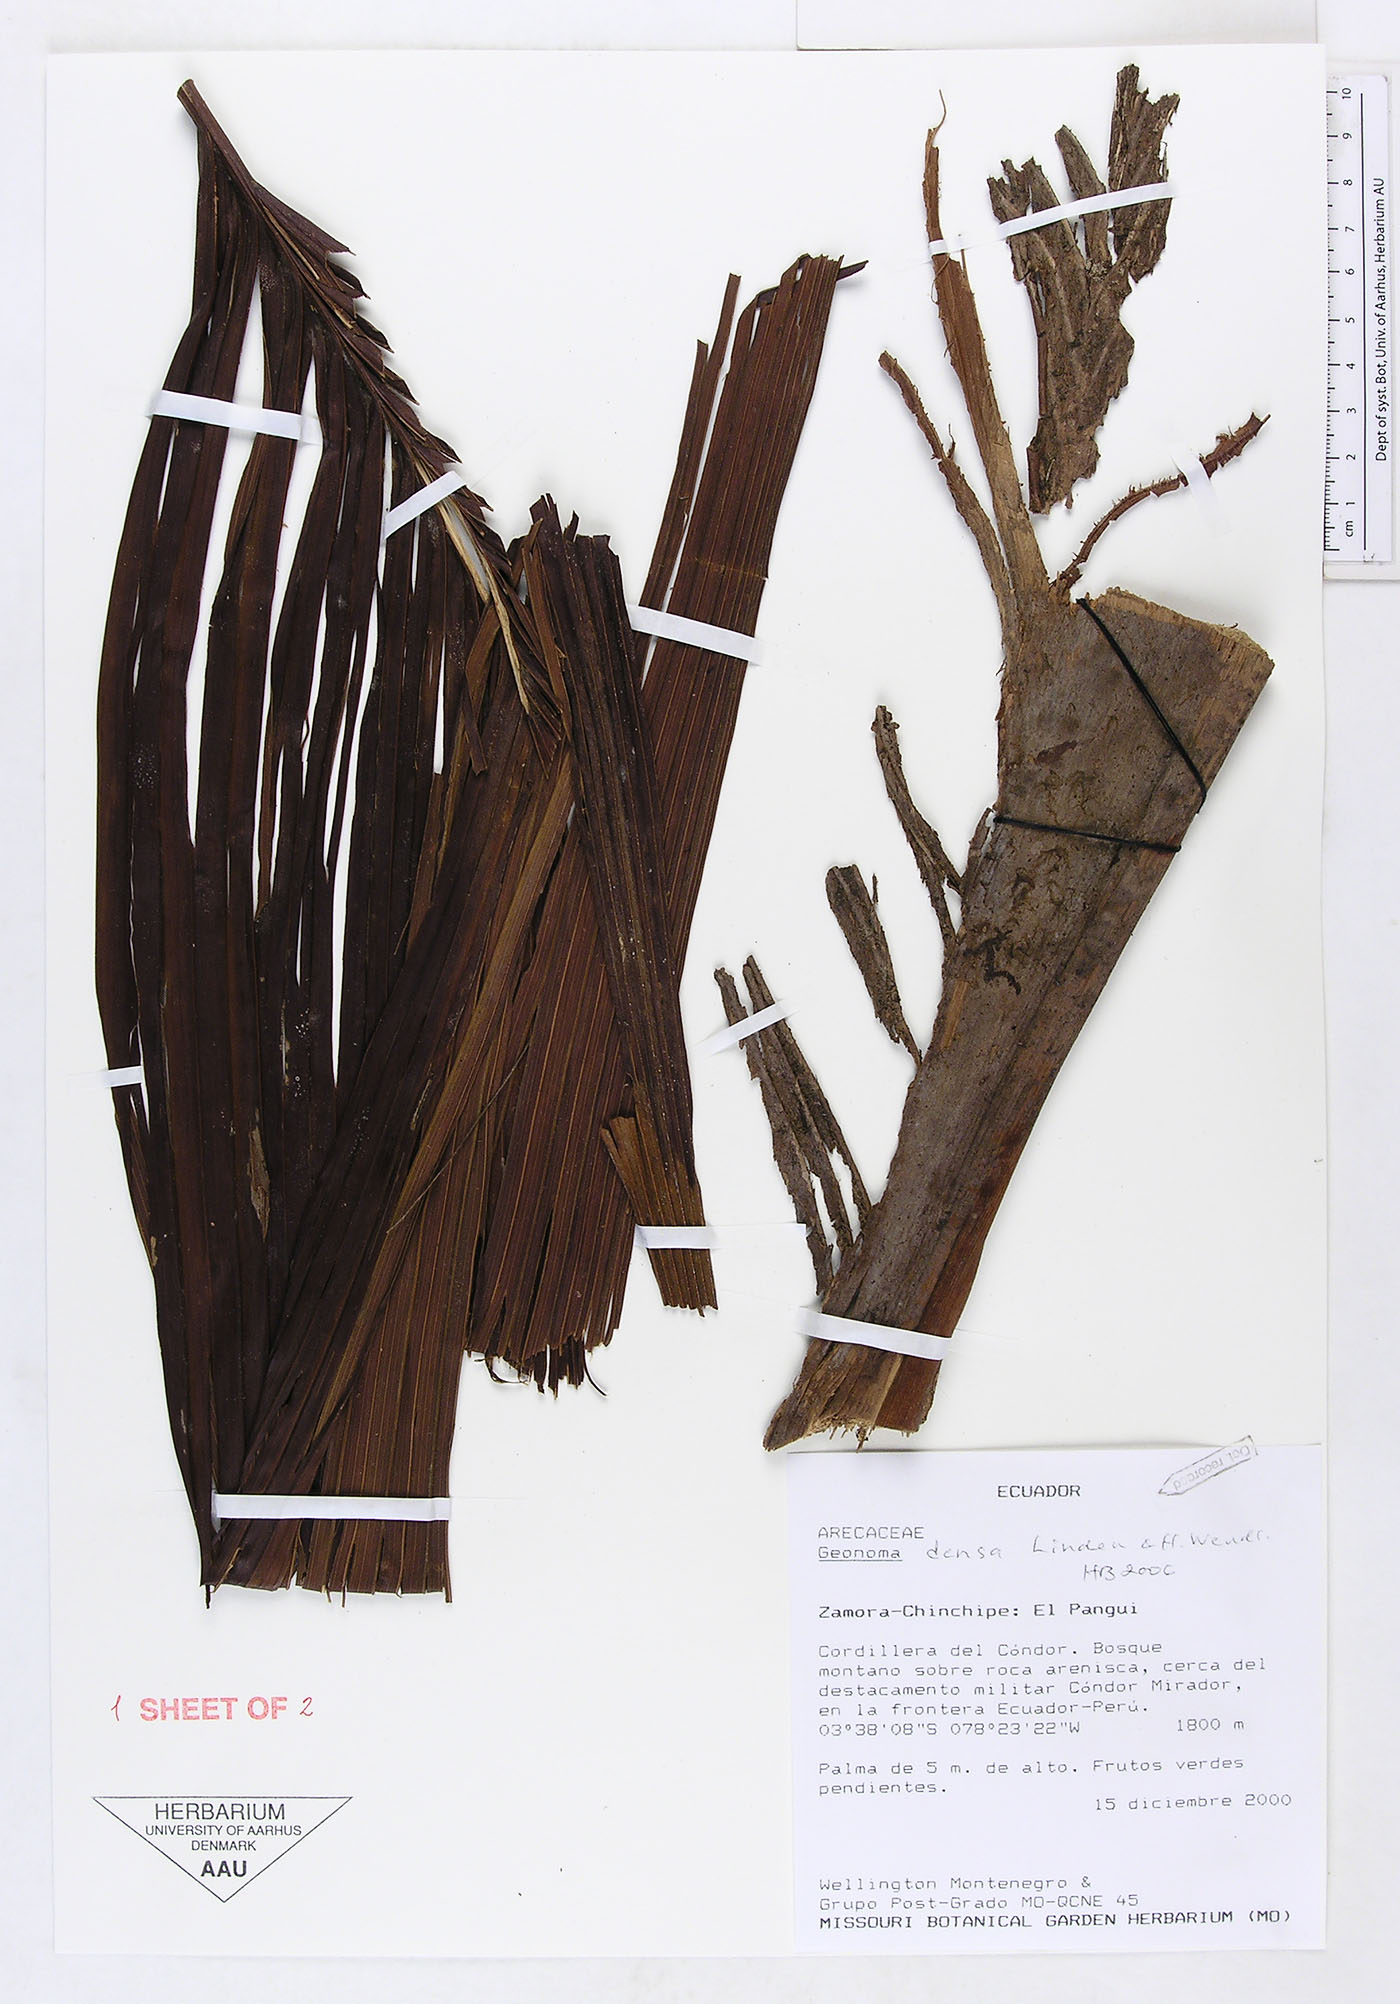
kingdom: Plantae
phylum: Tracheophyta
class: Liliopsida
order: Arecales
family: Arecaceae
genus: Geonoma
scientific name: Geonoma undata
